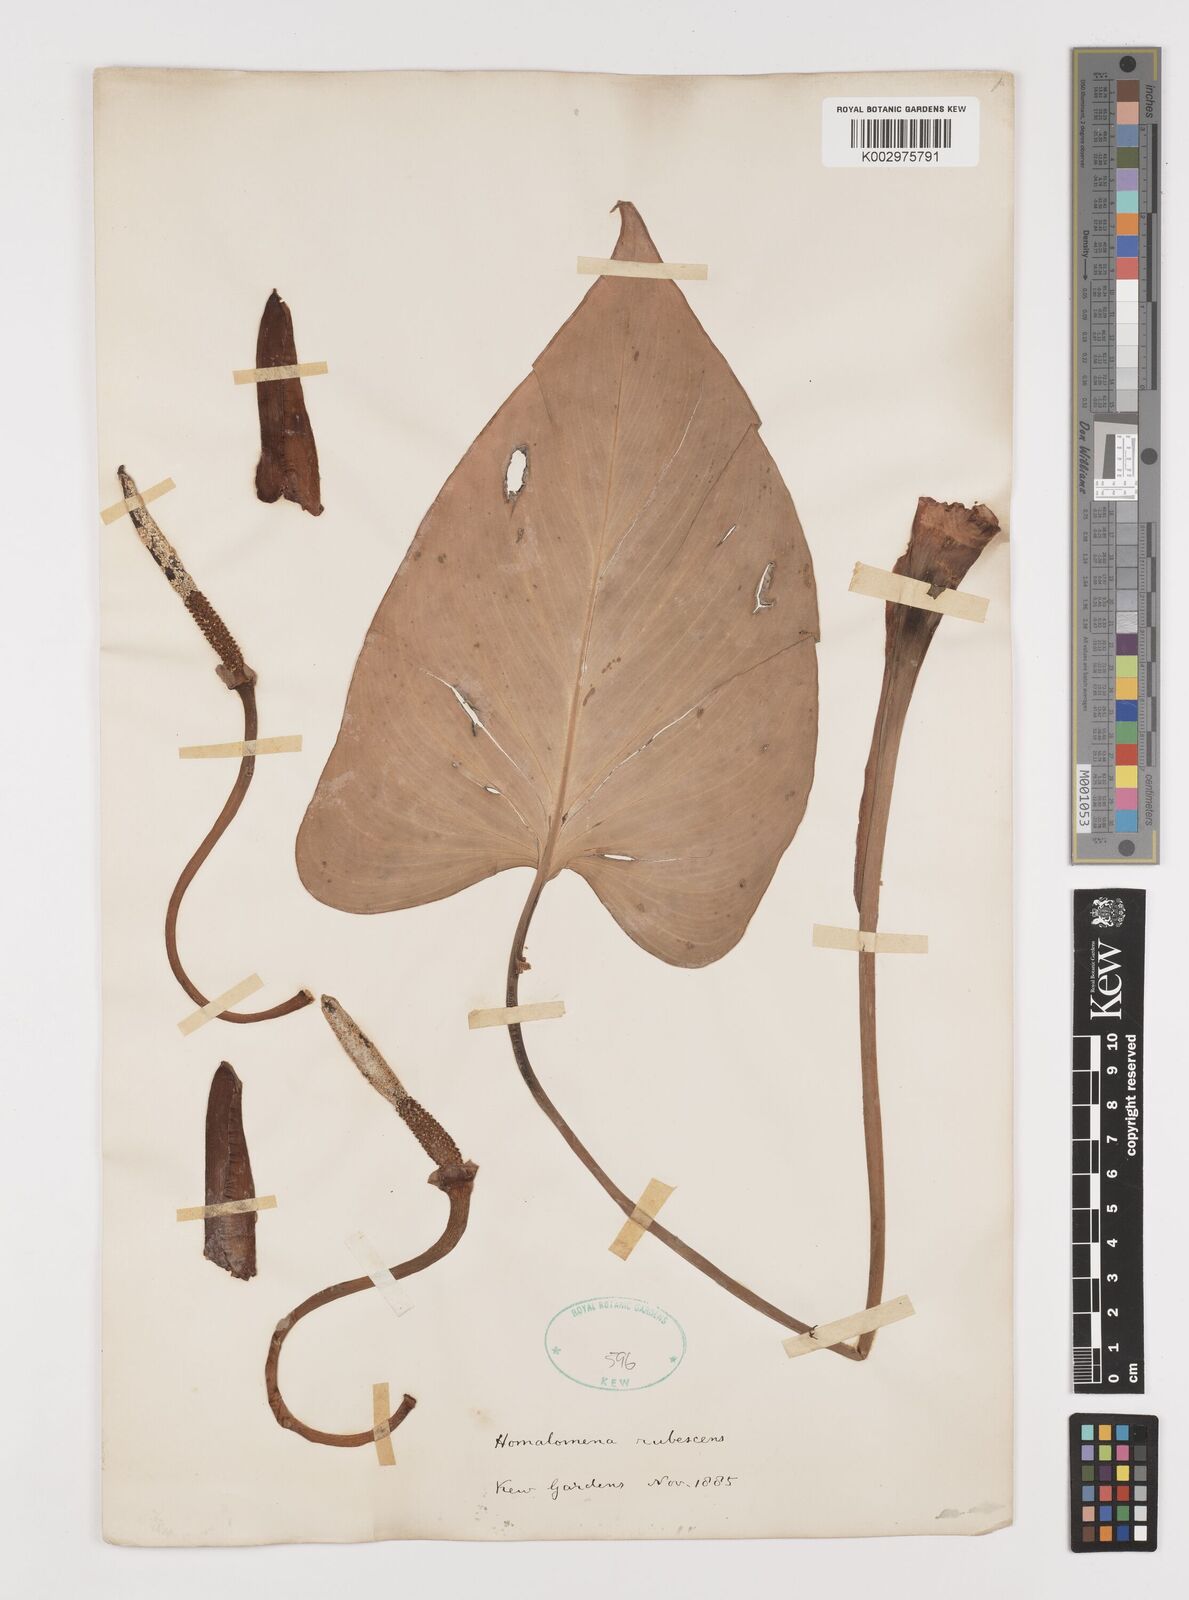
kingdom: Plantae
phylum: Tracheophyta
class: Liliopsida
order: Alismatales
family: Araceae
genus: Homalomena
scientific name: Homalomena rubescens
